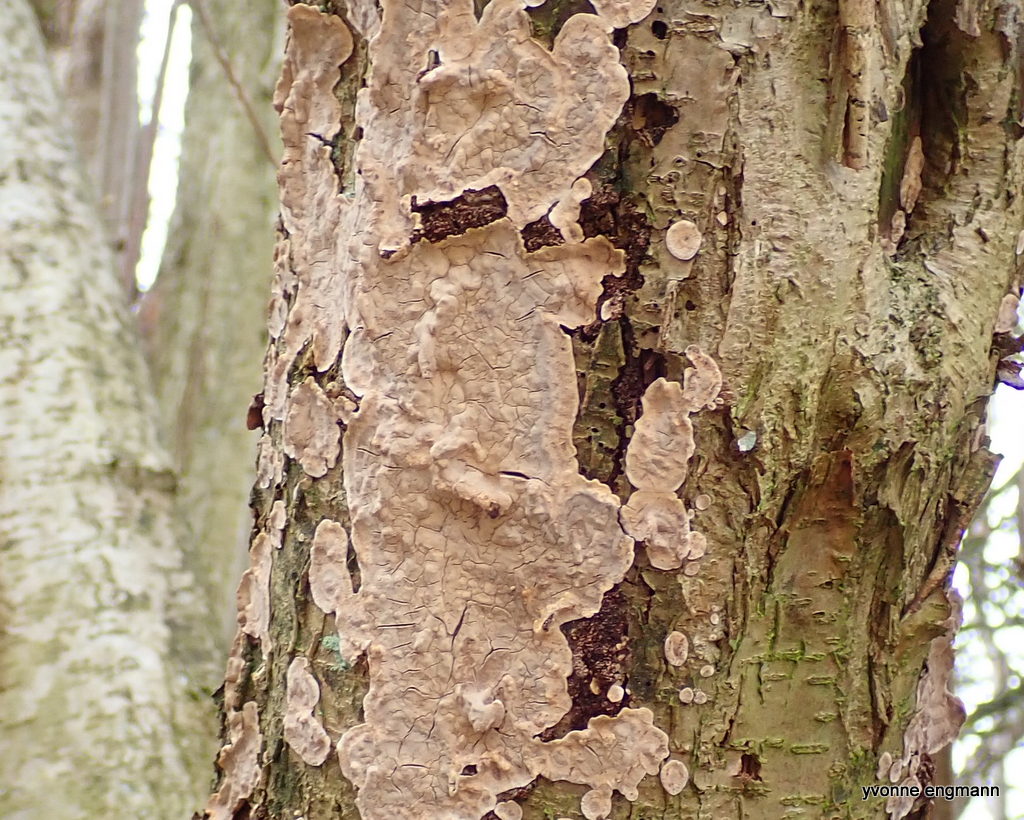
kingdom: Fungi
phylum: Basidiomycota
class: Agaricomycetes
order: Agaricales
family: Physalacriaceae
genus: Cylindrobasidium
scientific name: Cylindrobasidium evolvens
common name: sprækkehinde
